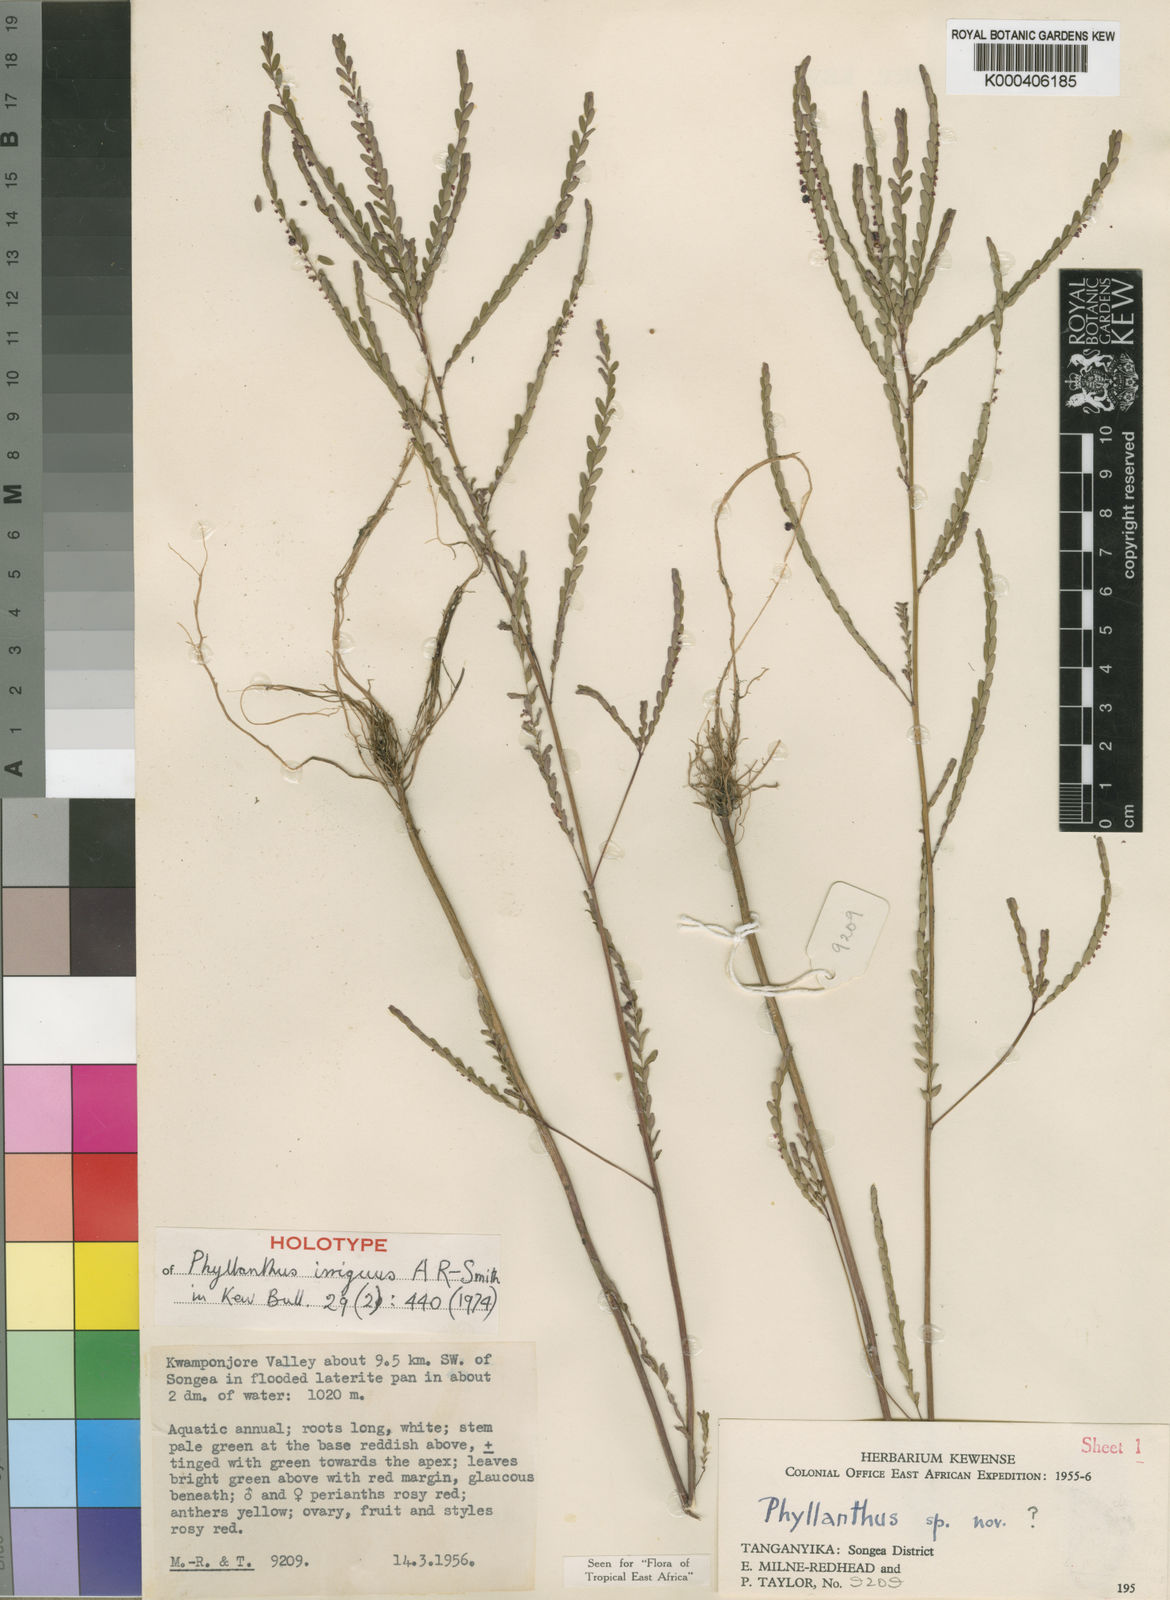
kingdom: Plantae
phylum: Tracheophyta
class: Magnoliopsida
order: Malpighiales
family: Phyllanthaceae
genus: Phyllanthus
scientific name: Phyllanthus irriguus
